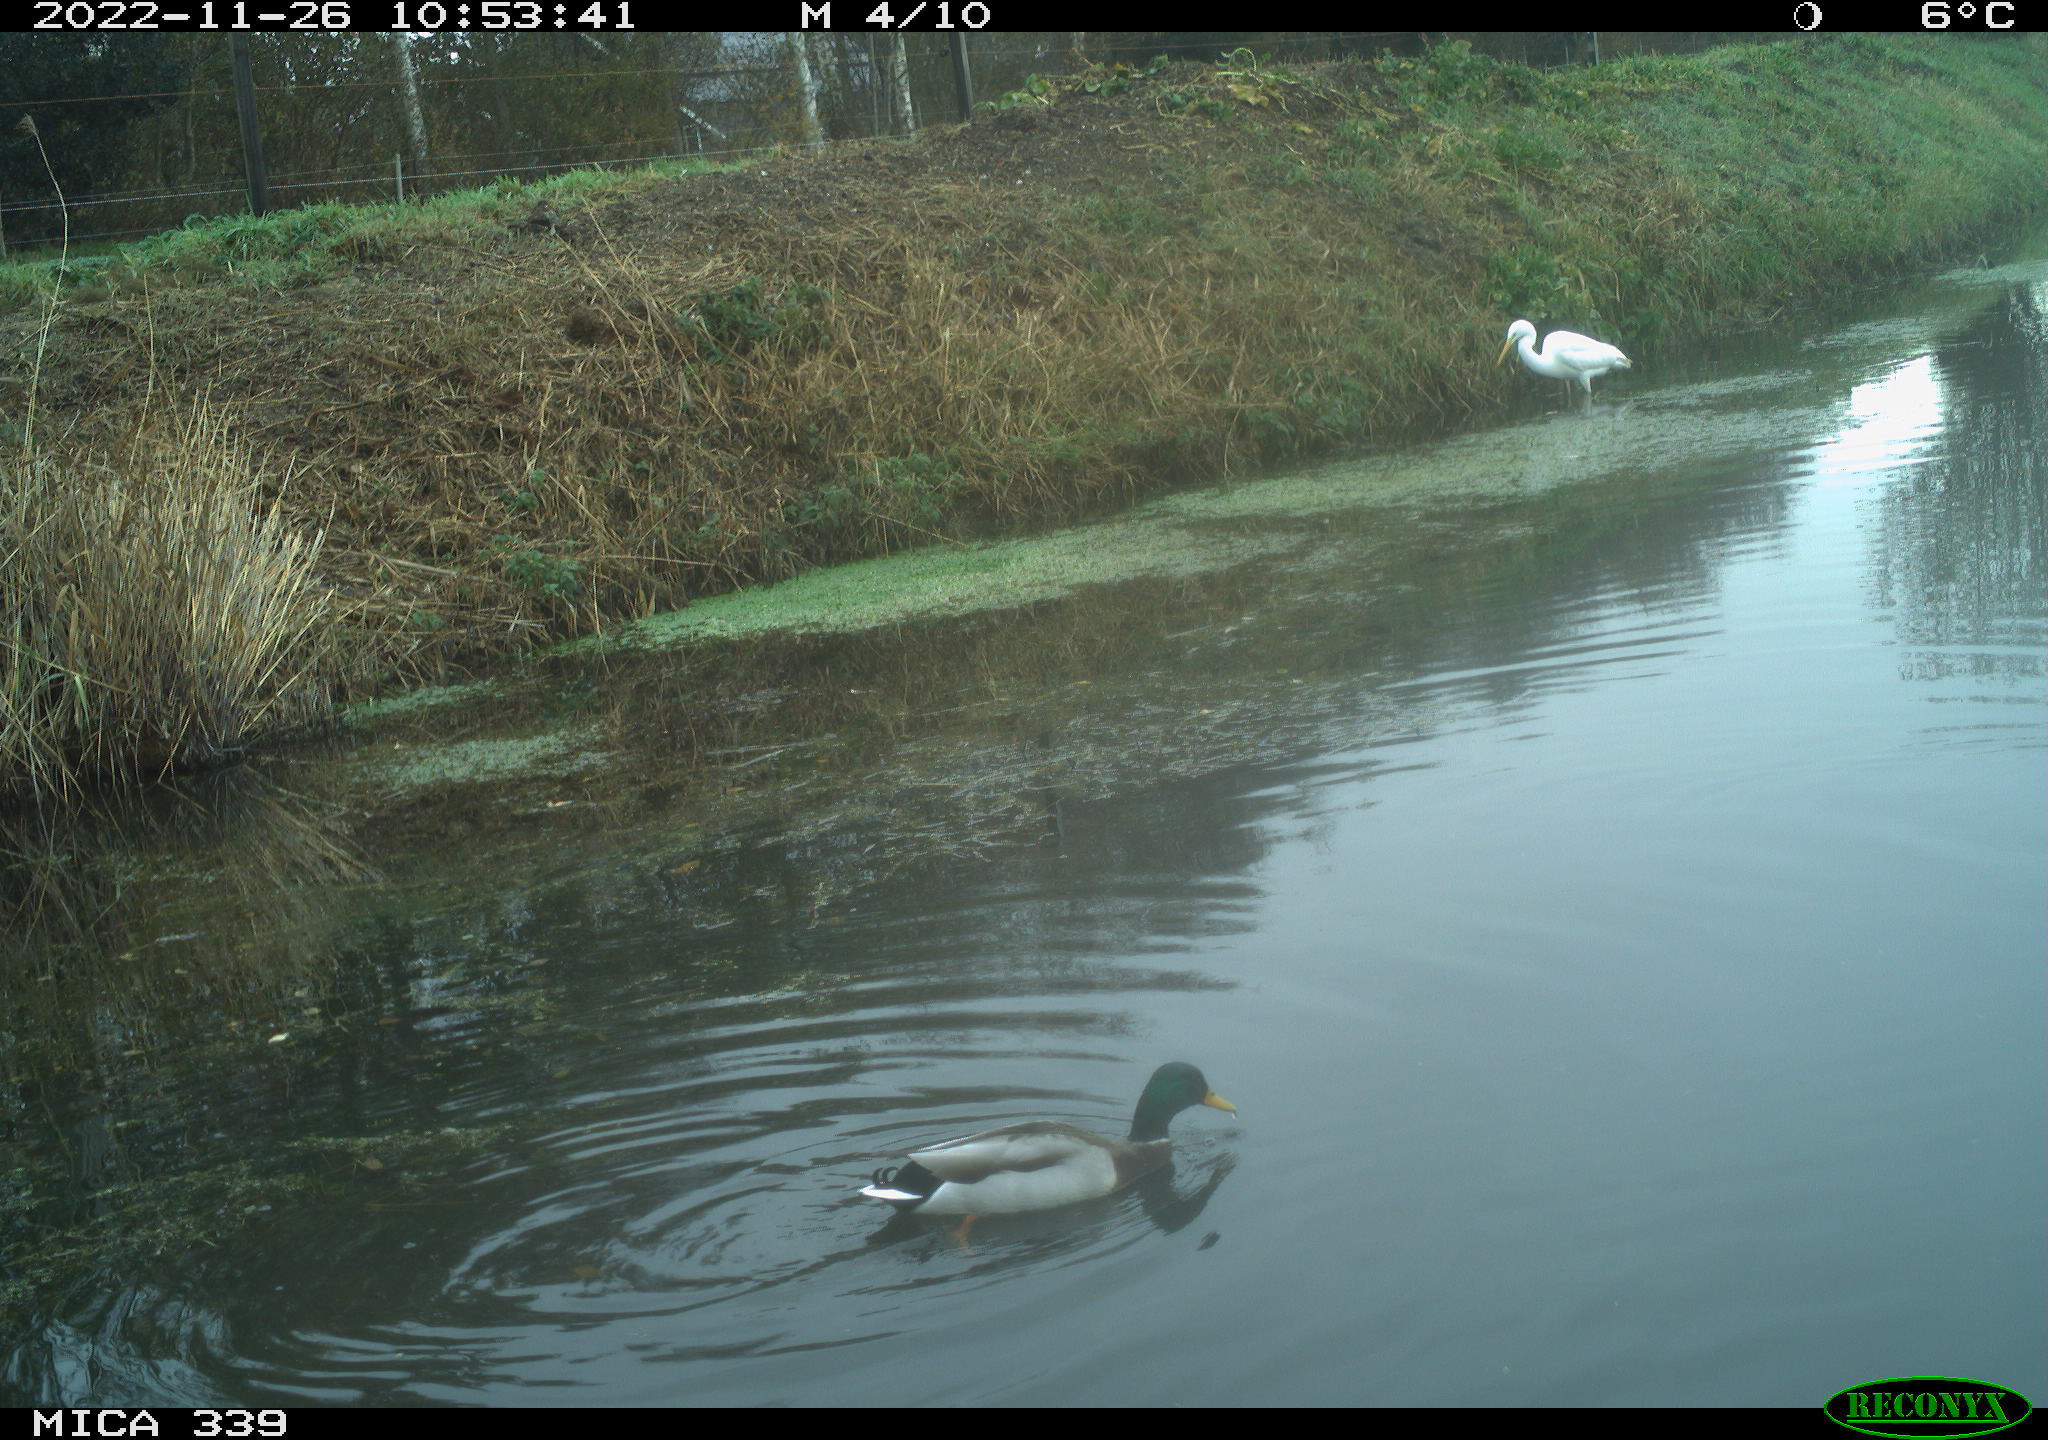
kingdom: Animalia
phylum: Chordata
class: Aves
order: Pelecaniformes
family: Ardeidae
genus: Ardea
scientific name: Ardea alba
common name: Great egret
